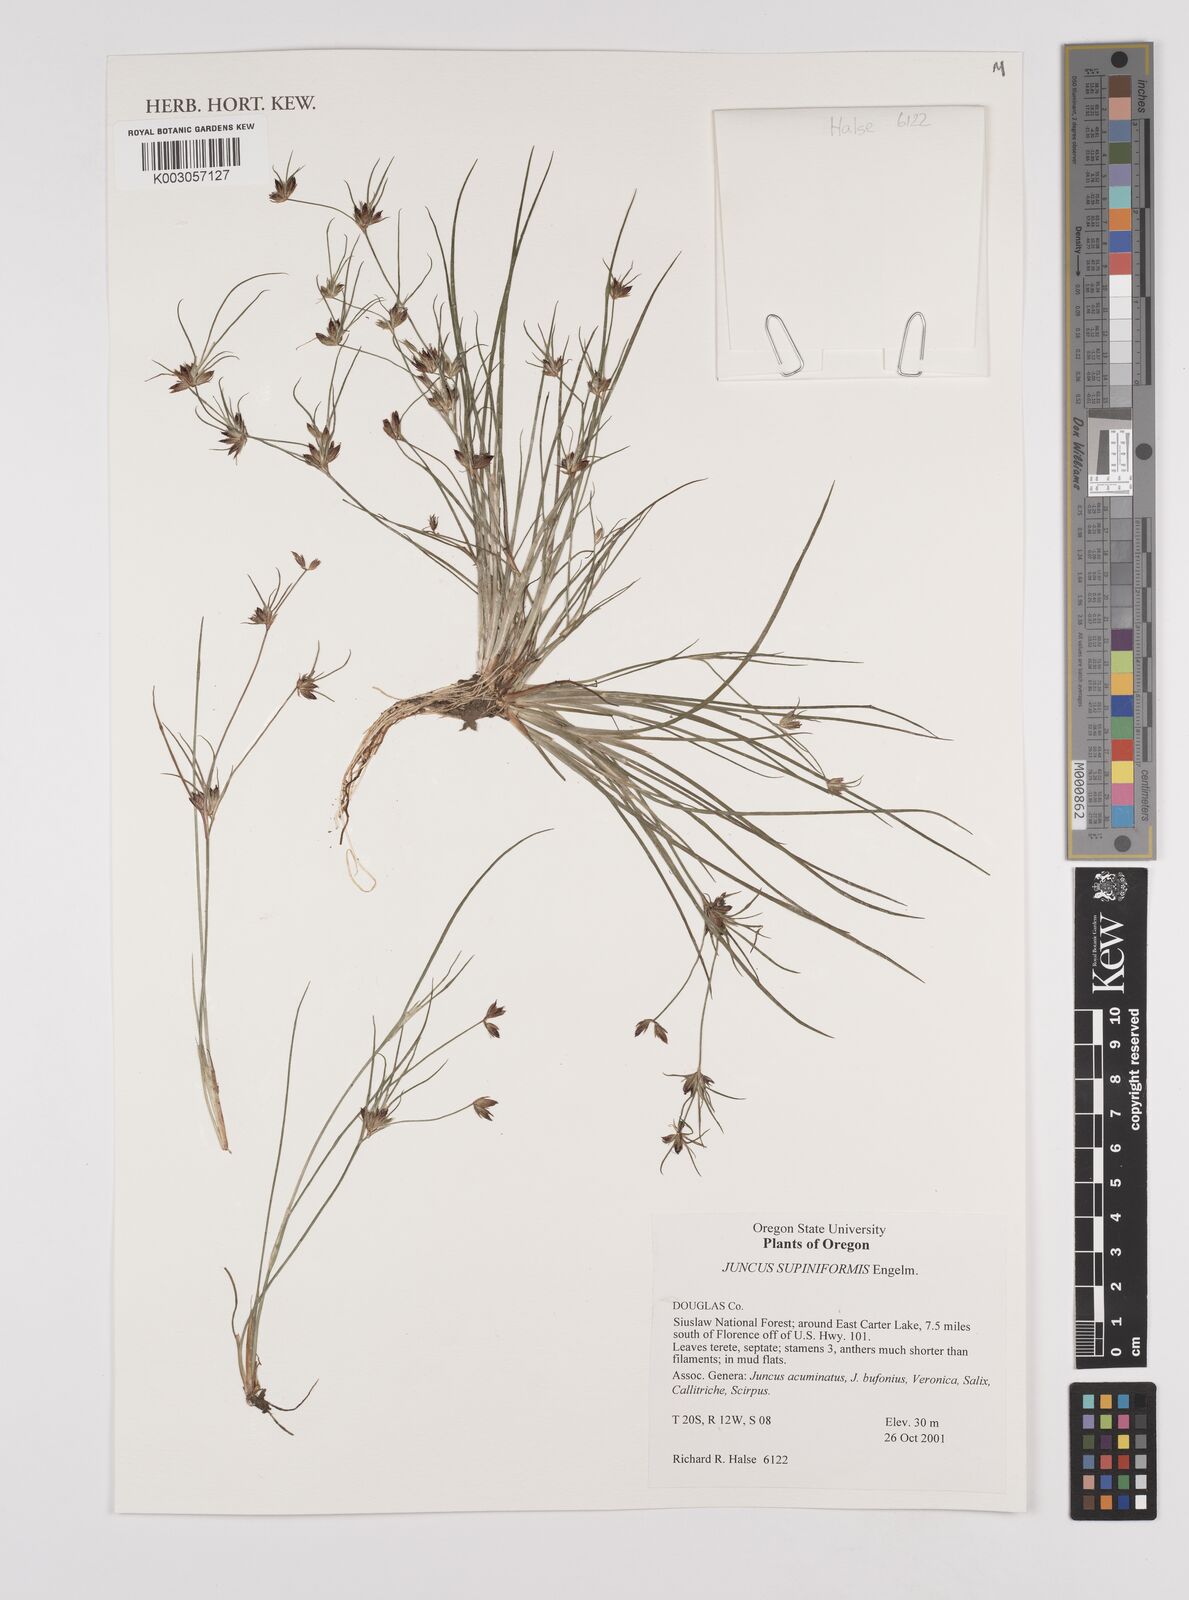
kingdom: Plantae
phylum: Tracheophyta
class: Liliopsida
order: Poales
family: Juncaceae
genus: Juncus
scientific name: Juncus militaris
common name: Bayonet rush
